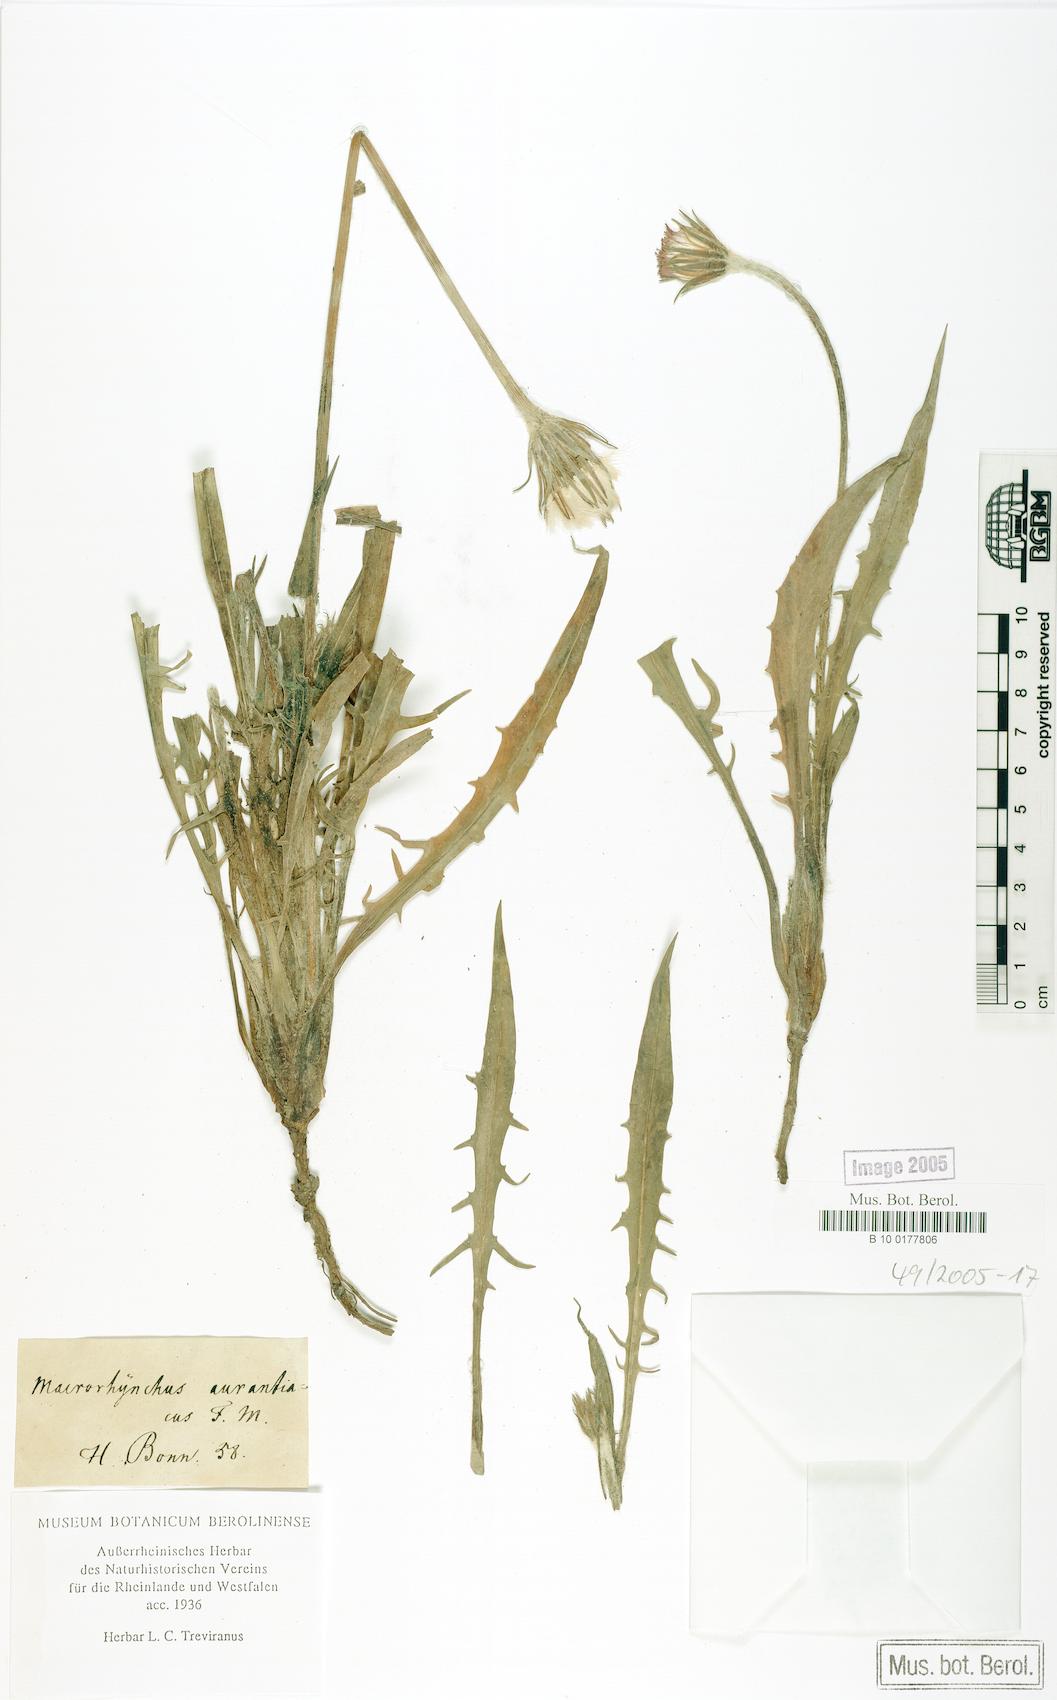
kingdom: Plantae
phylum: Tracheophyta
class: Magnoliopsida
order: Asterales
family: Asteraceae
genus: Agoseris
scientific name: Agoseris aurantiaca
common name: Mountain agoseris
